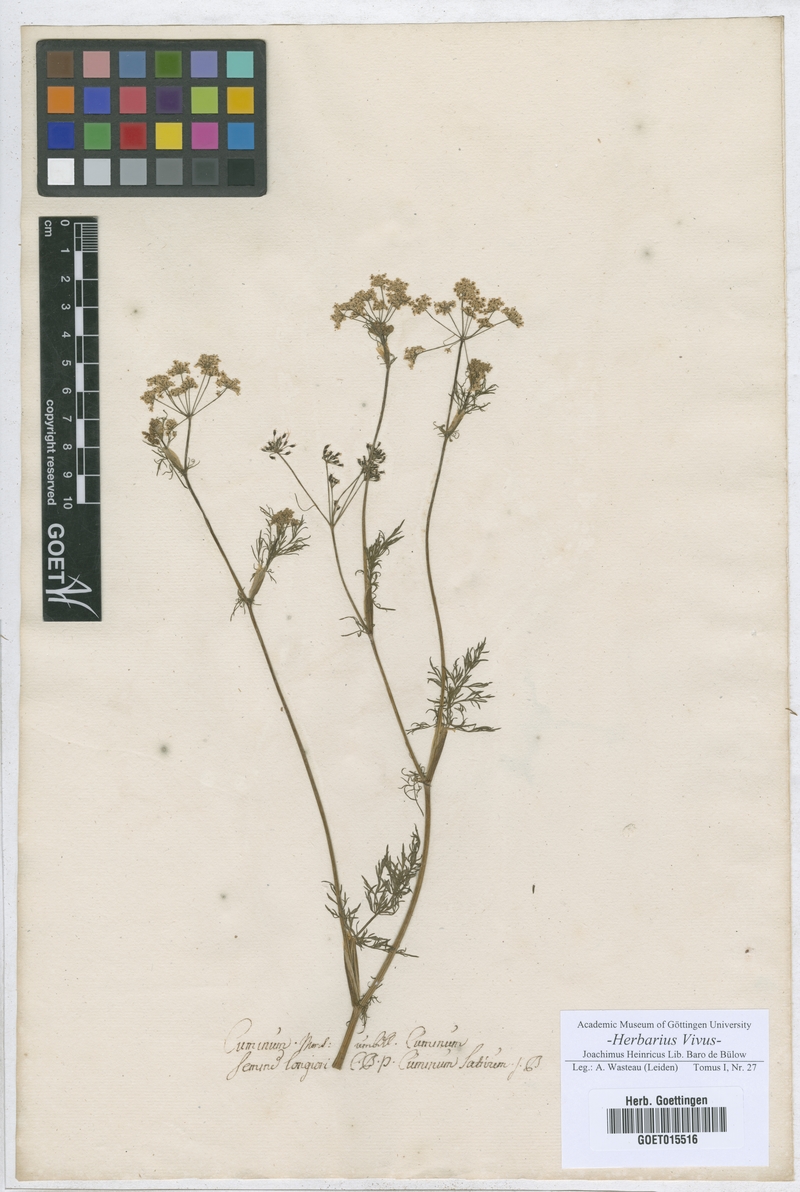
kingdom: Plantae
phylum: Tracheophyta
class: Magnoliopsida
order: Apiales
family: Apiaceae
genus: Cuminum
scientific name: Cuminum cyminum
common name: Cumin
